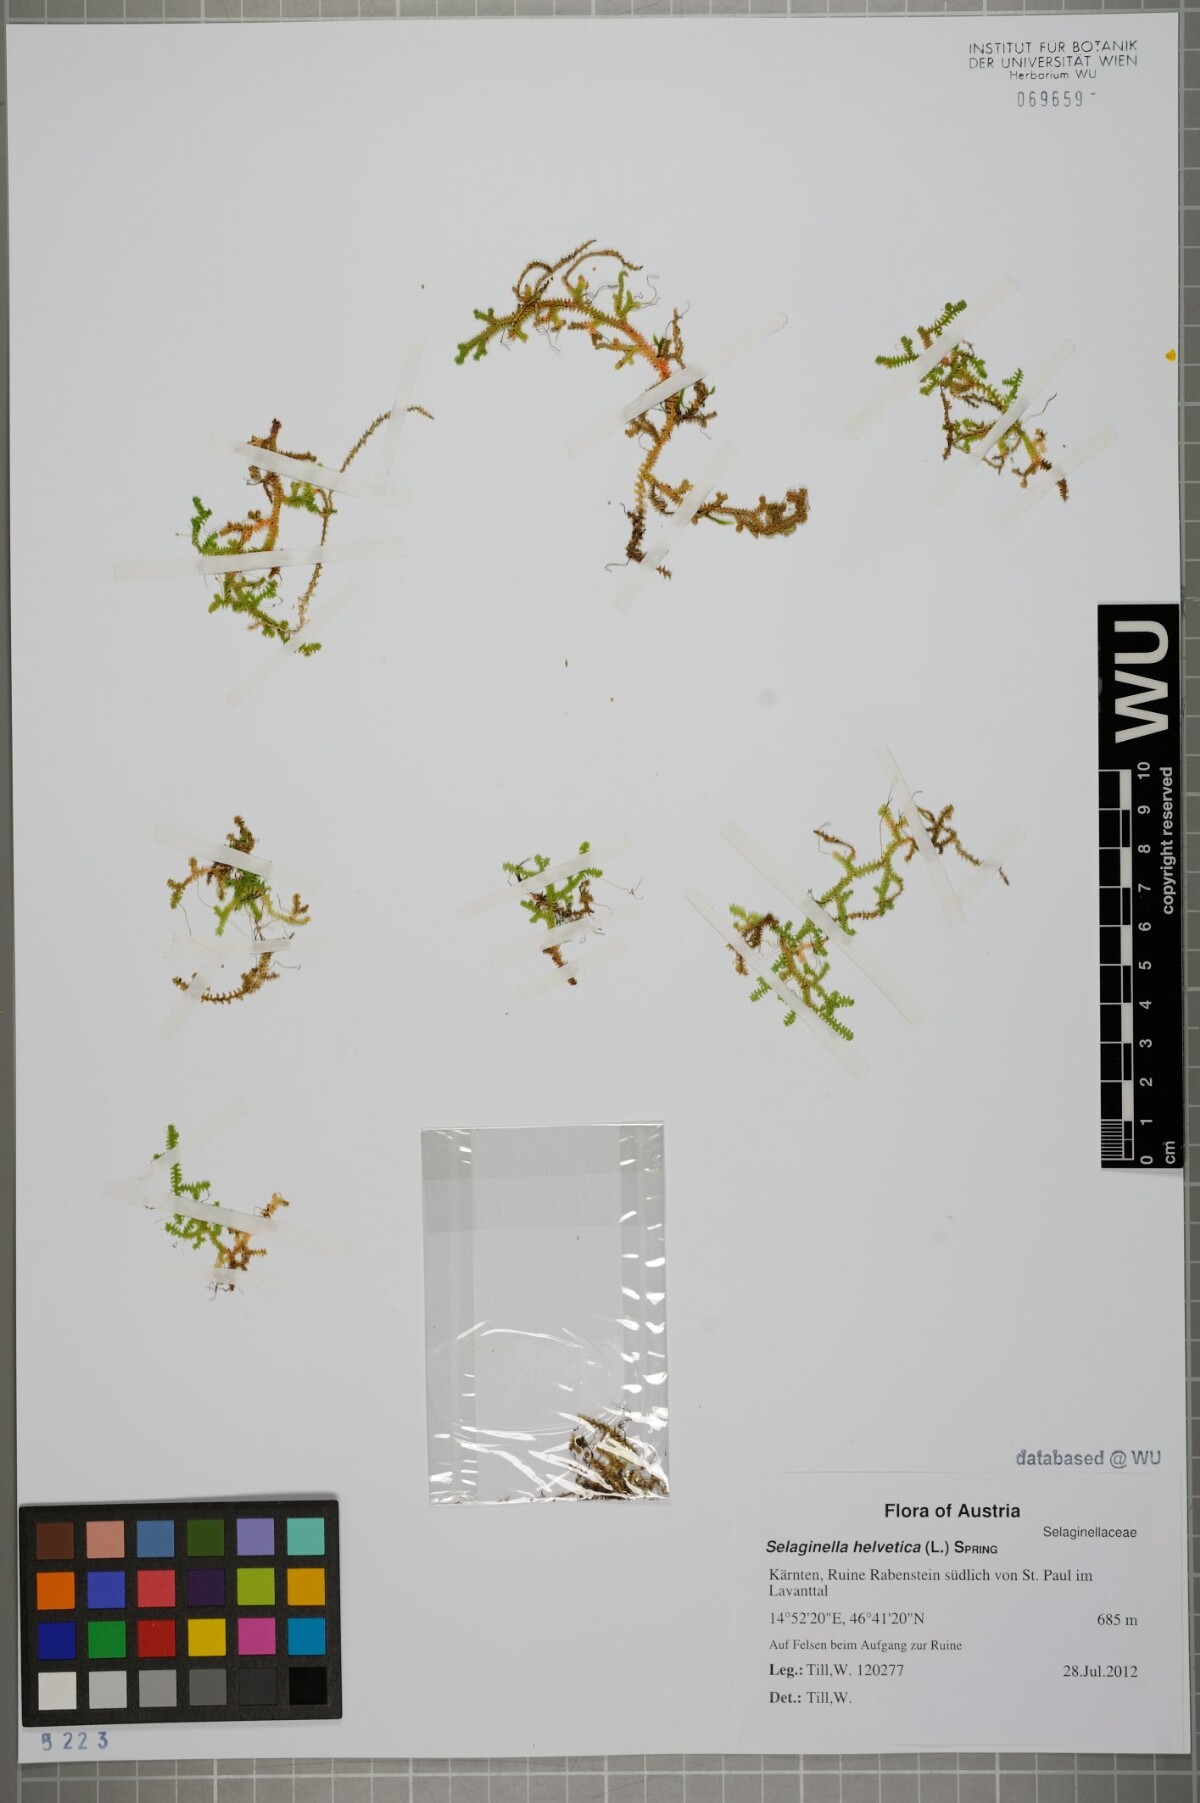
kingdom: Plantae
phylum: Tracheophyta
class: Lycopodiopsida
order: Selaginellales
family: Selaginellaceae
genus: Selaginella
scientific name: Selaginella helvetica
